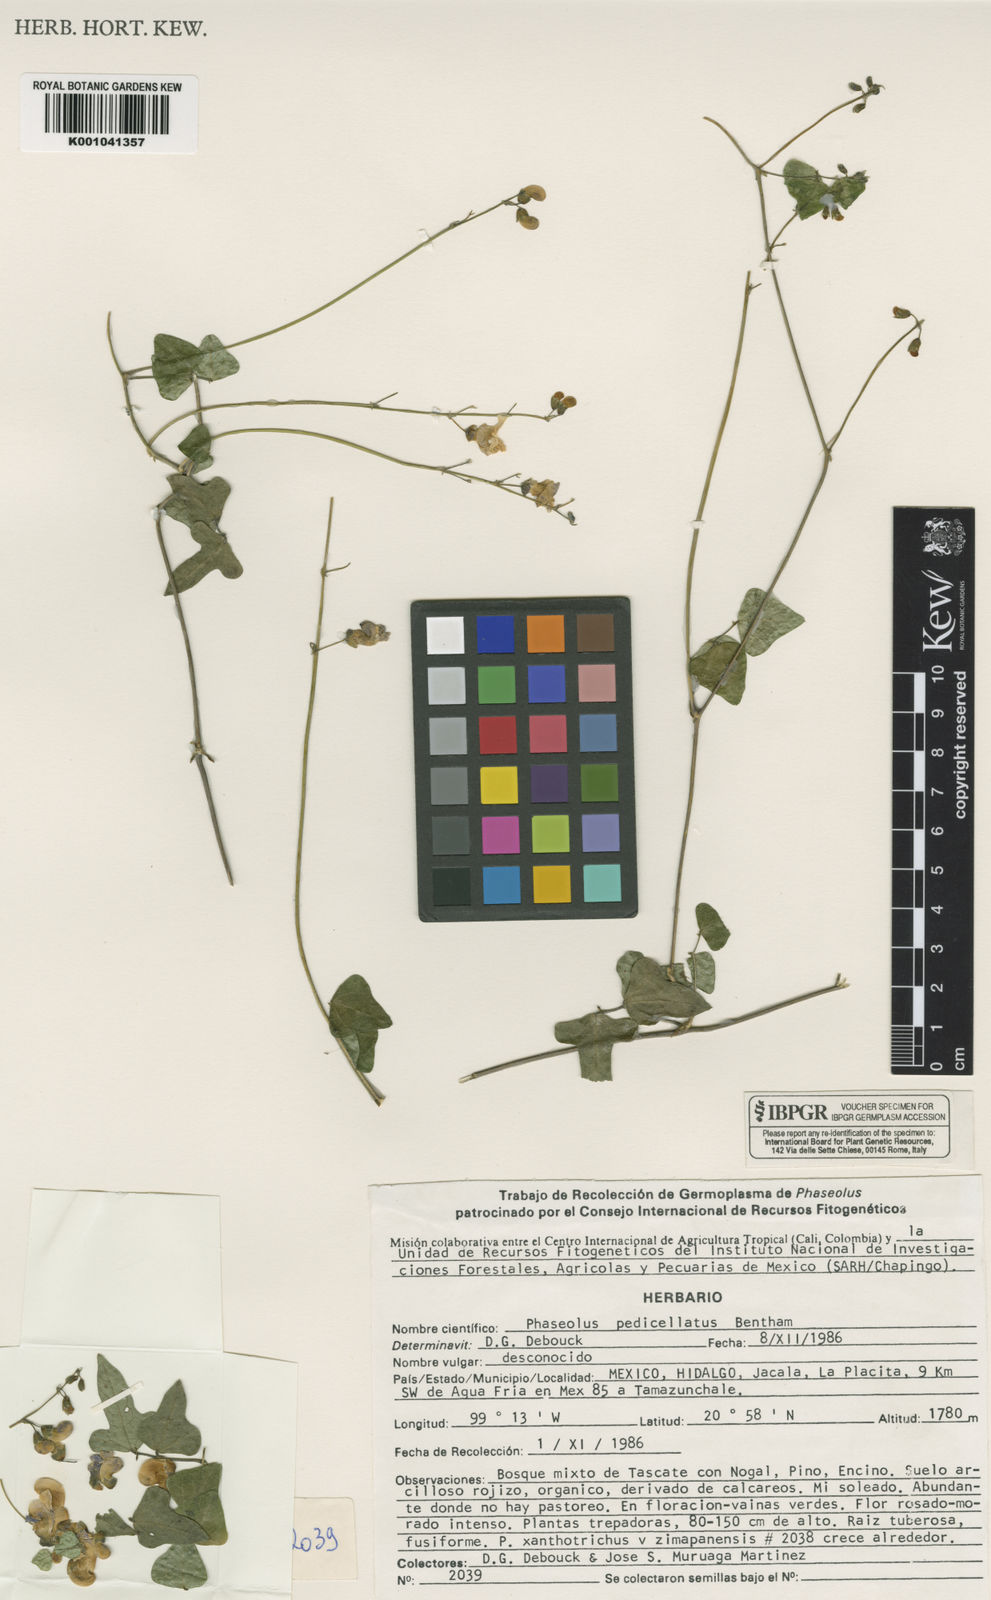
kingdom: Plantae
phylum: Tracheophyta
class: Magnoliopsida
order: Fabales
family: Fabaceae
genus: Phaseolus
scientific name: Phaseolus pedicellatus
